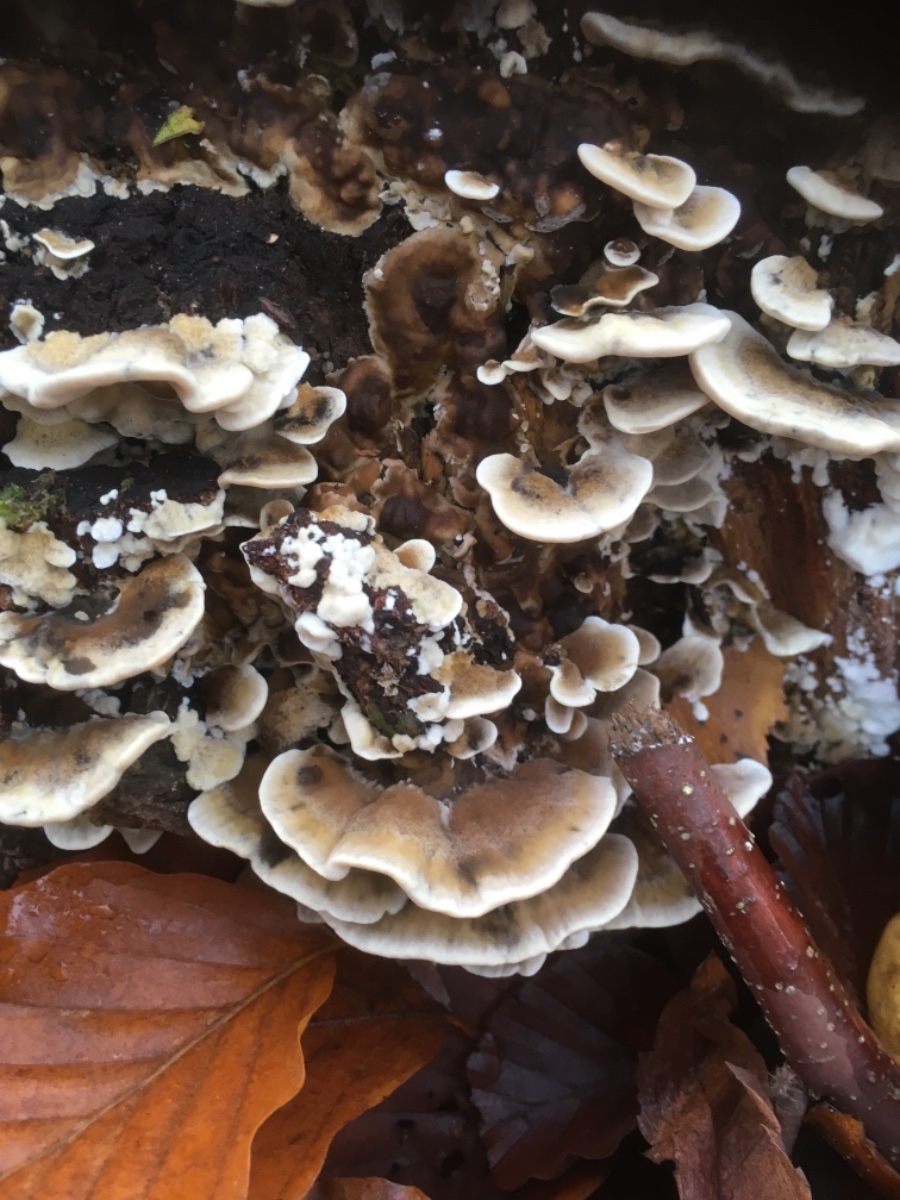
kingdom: Fungi
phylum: Basidiomycota
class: Agaricomycetes
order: Polyporales
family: Phanerochaetaceae
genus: Bjerkandera
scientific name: Bjerkandera adusta
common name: sveden sodporesvamp
